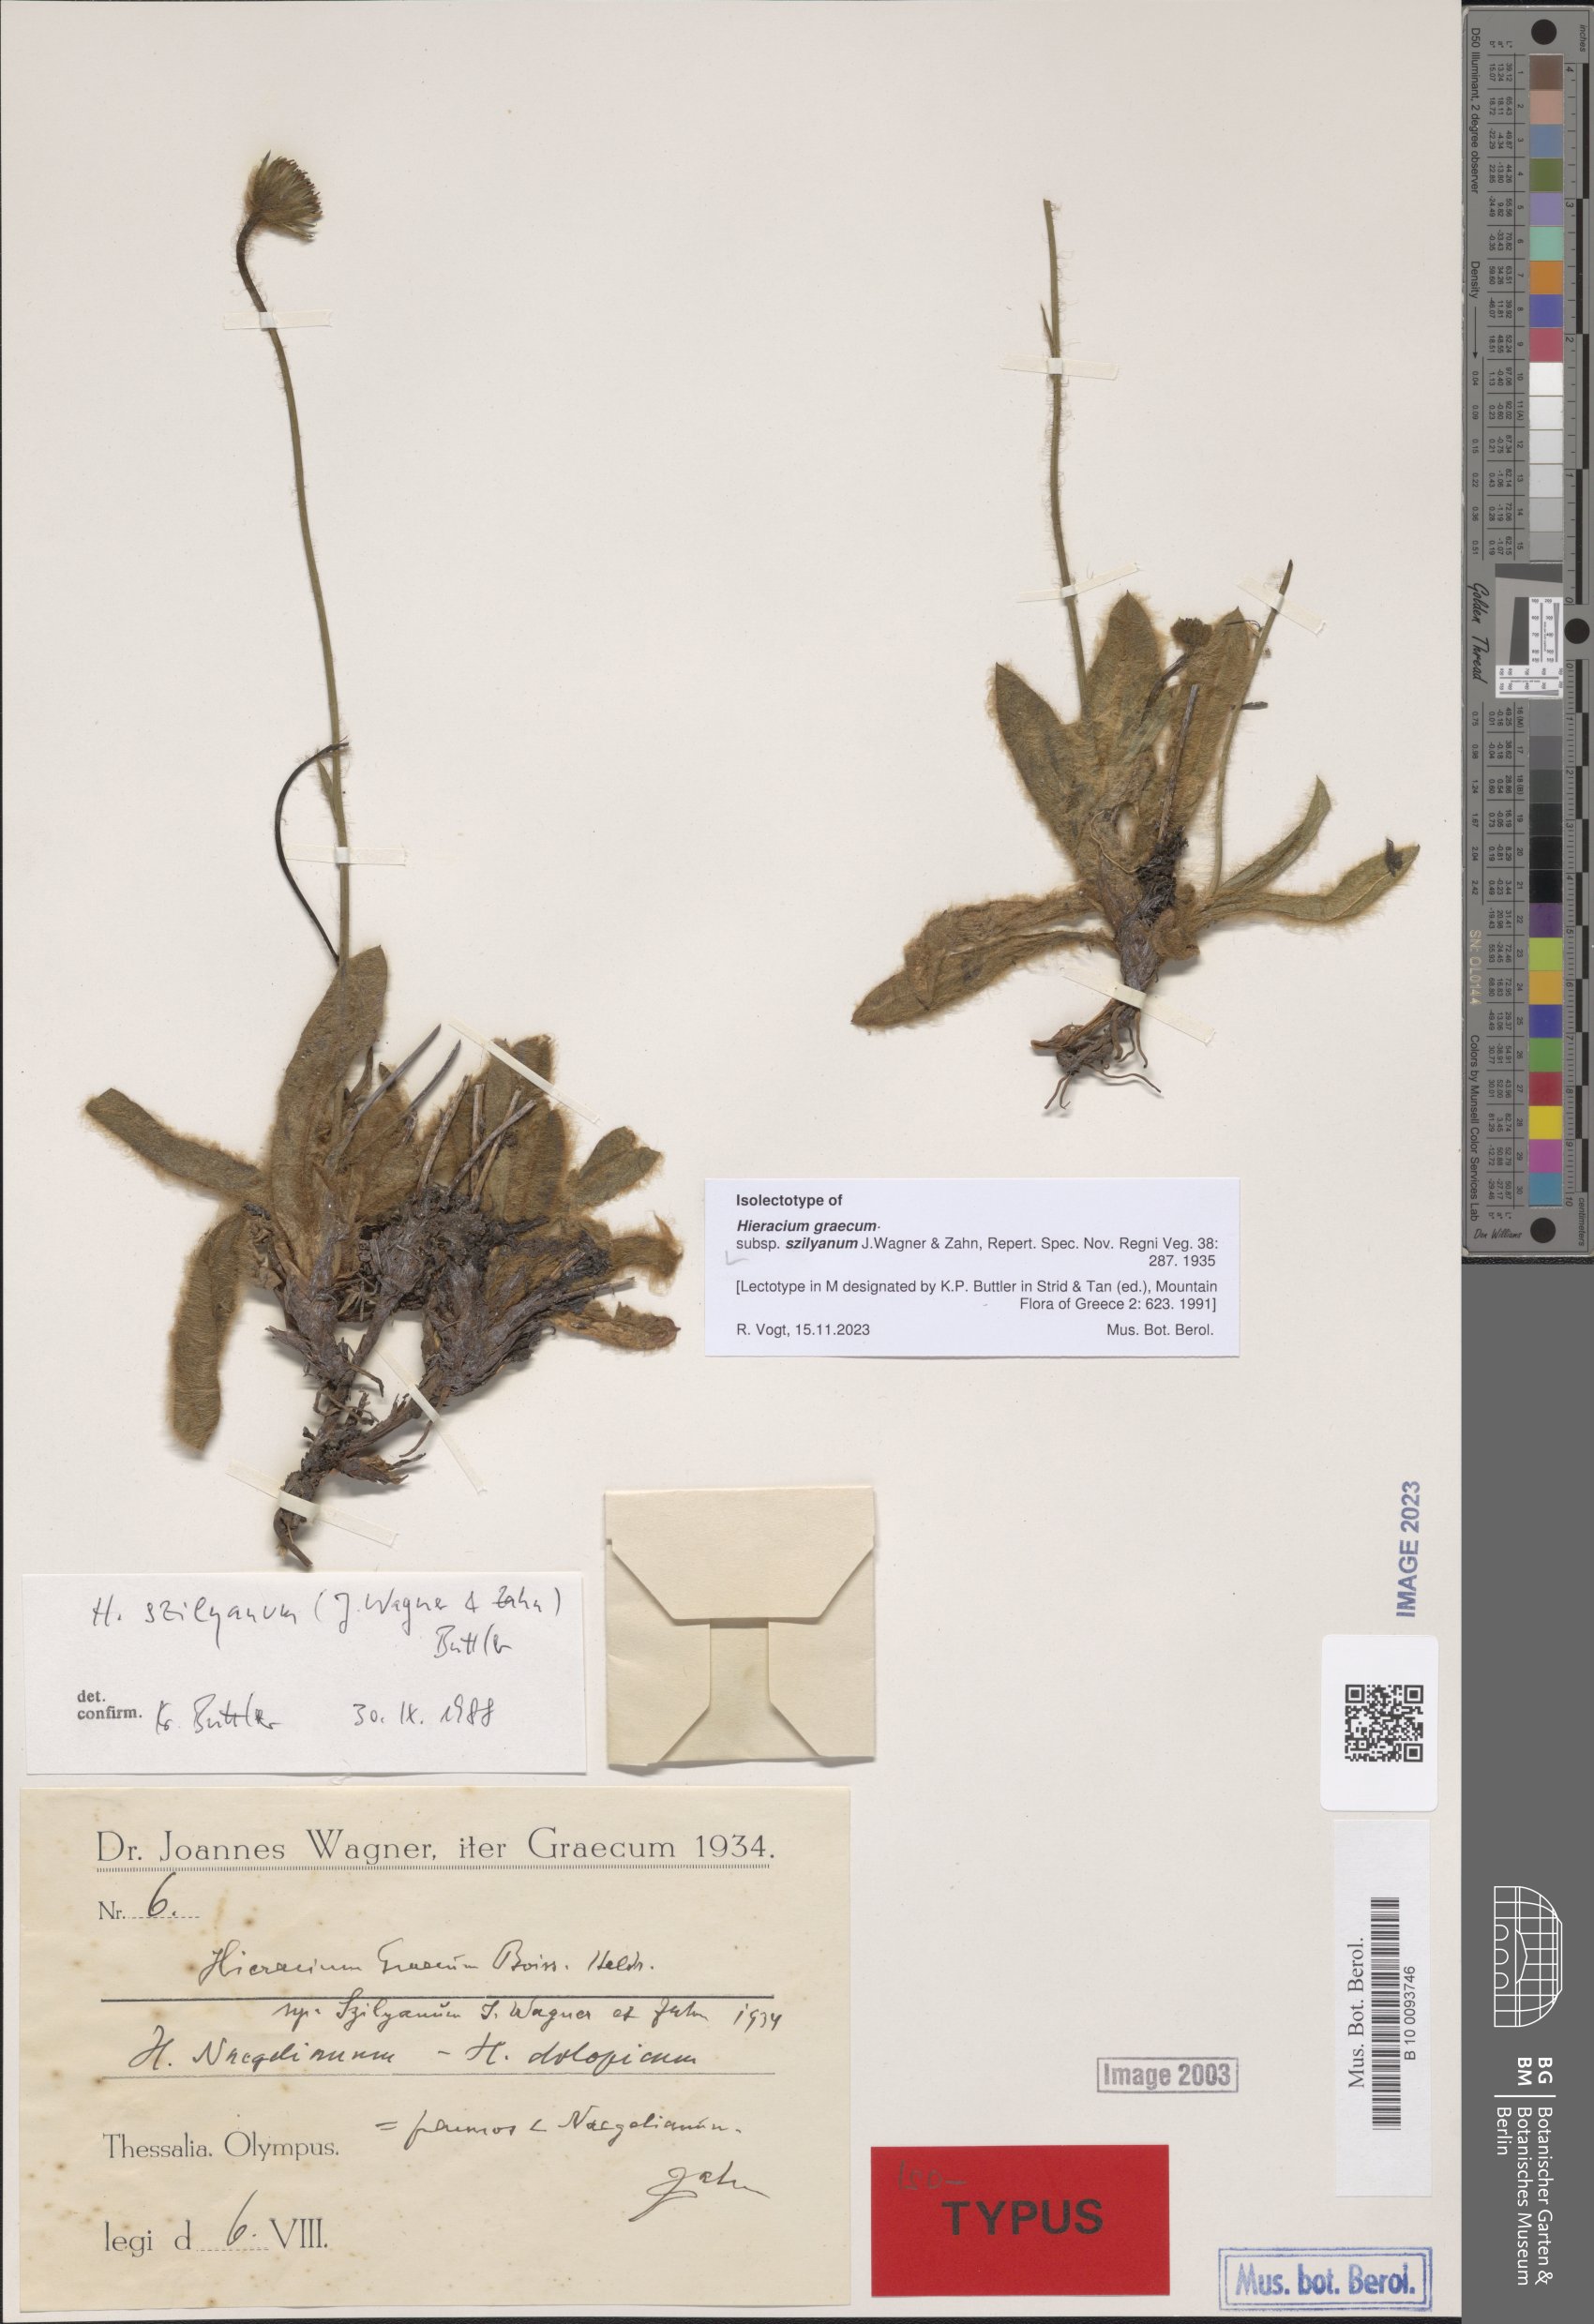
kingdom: Plantae
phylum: Tracheophyta
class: Magnoliopsida
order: Asterales
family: Asteraceae
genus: Hieracium
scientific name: Hieracium graecum
